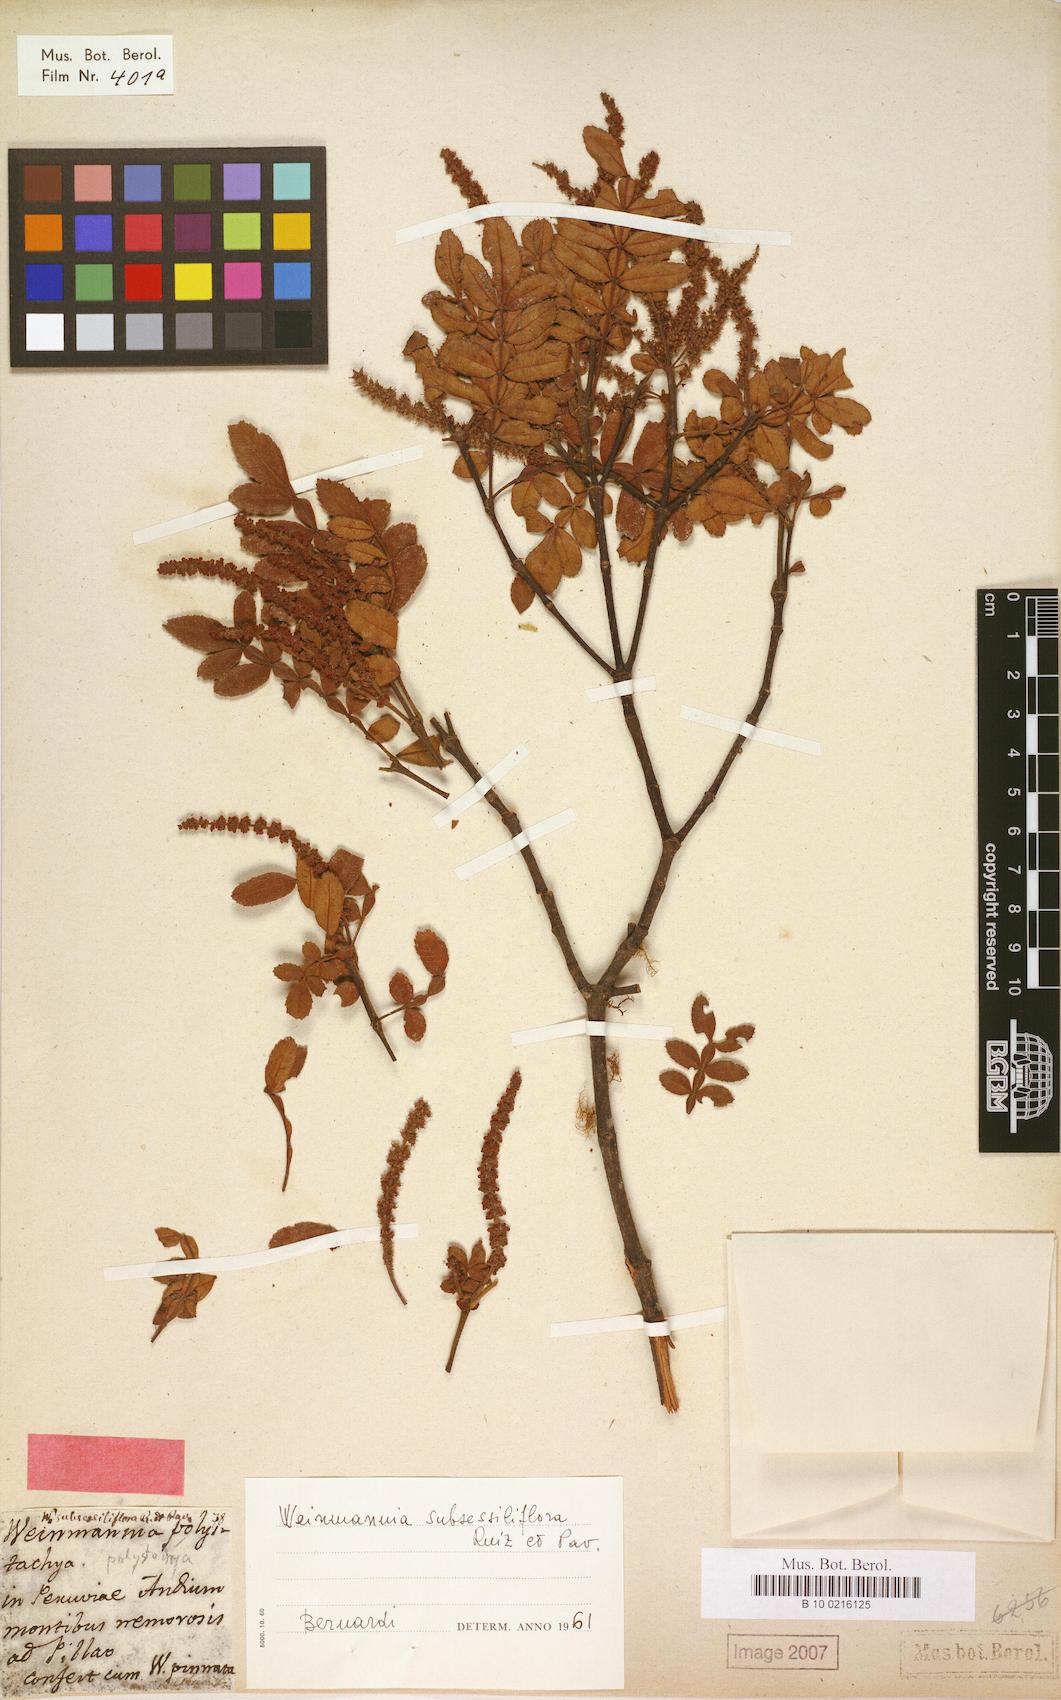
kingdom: Plantae
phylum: Tracheophyta
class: Magnoliopsida
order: Oxalidales
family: Cunoniaceae
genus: Weinmannia
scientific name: Weinmannia subsessiliflora
